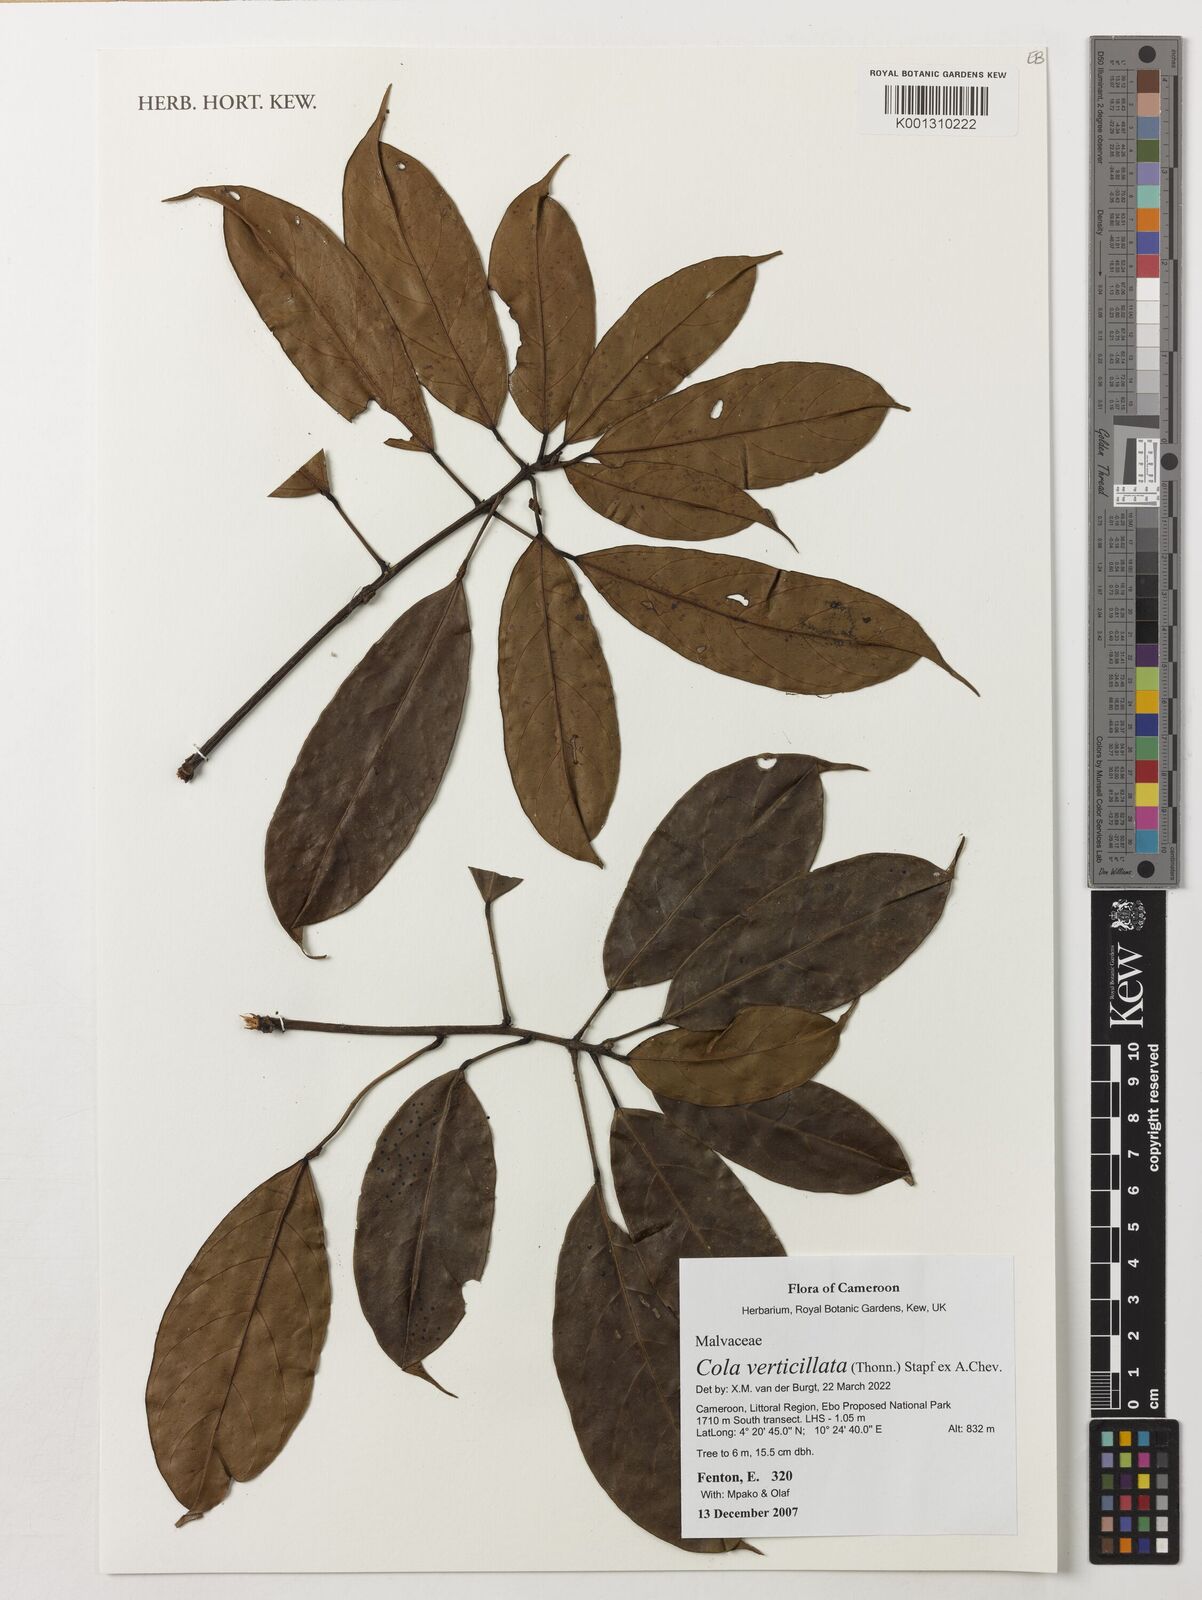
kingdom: Plantae
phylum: Tracheophyta
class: Magnoliopsida
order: Malvales
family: Malvaceae
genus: Cola
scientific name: Cola verticillata
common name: Owé cola
